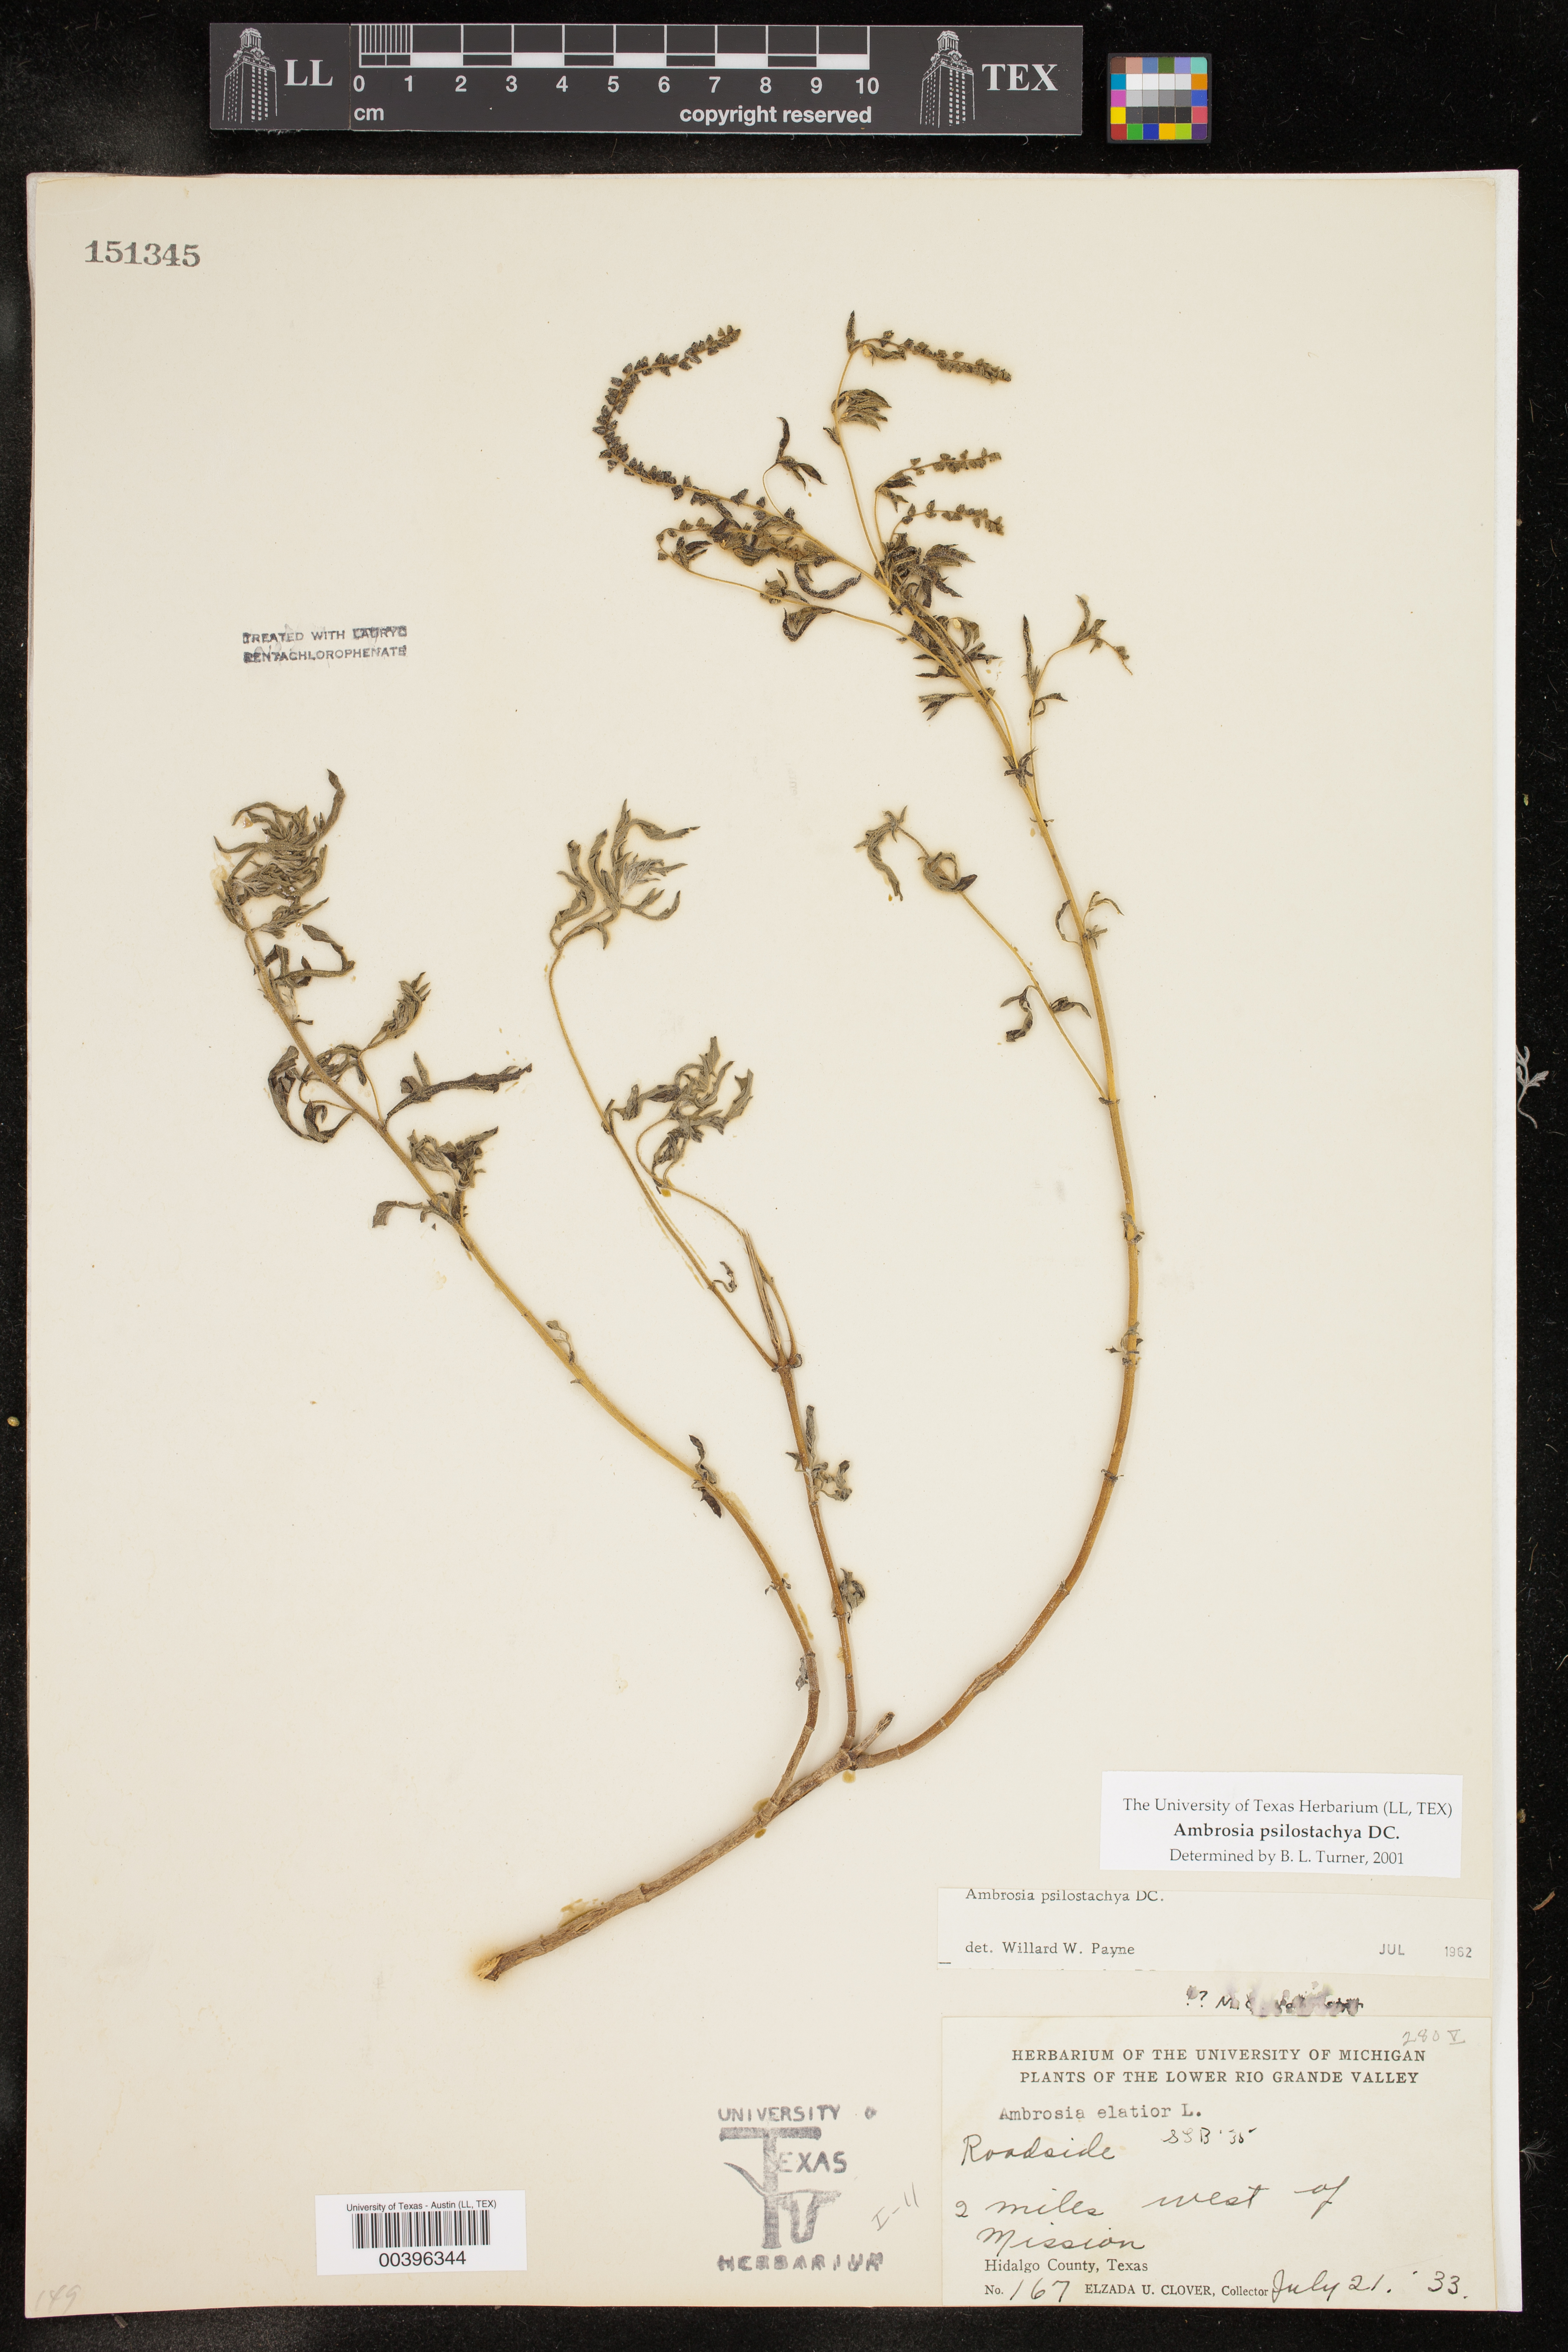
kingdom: Plantae
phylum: Tracheophyta
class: Magnoliopsida
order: Asterales
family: Asteraceae
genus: Ambrosia
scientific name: Ambrosia psilostachya
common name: Perennial ragweed
